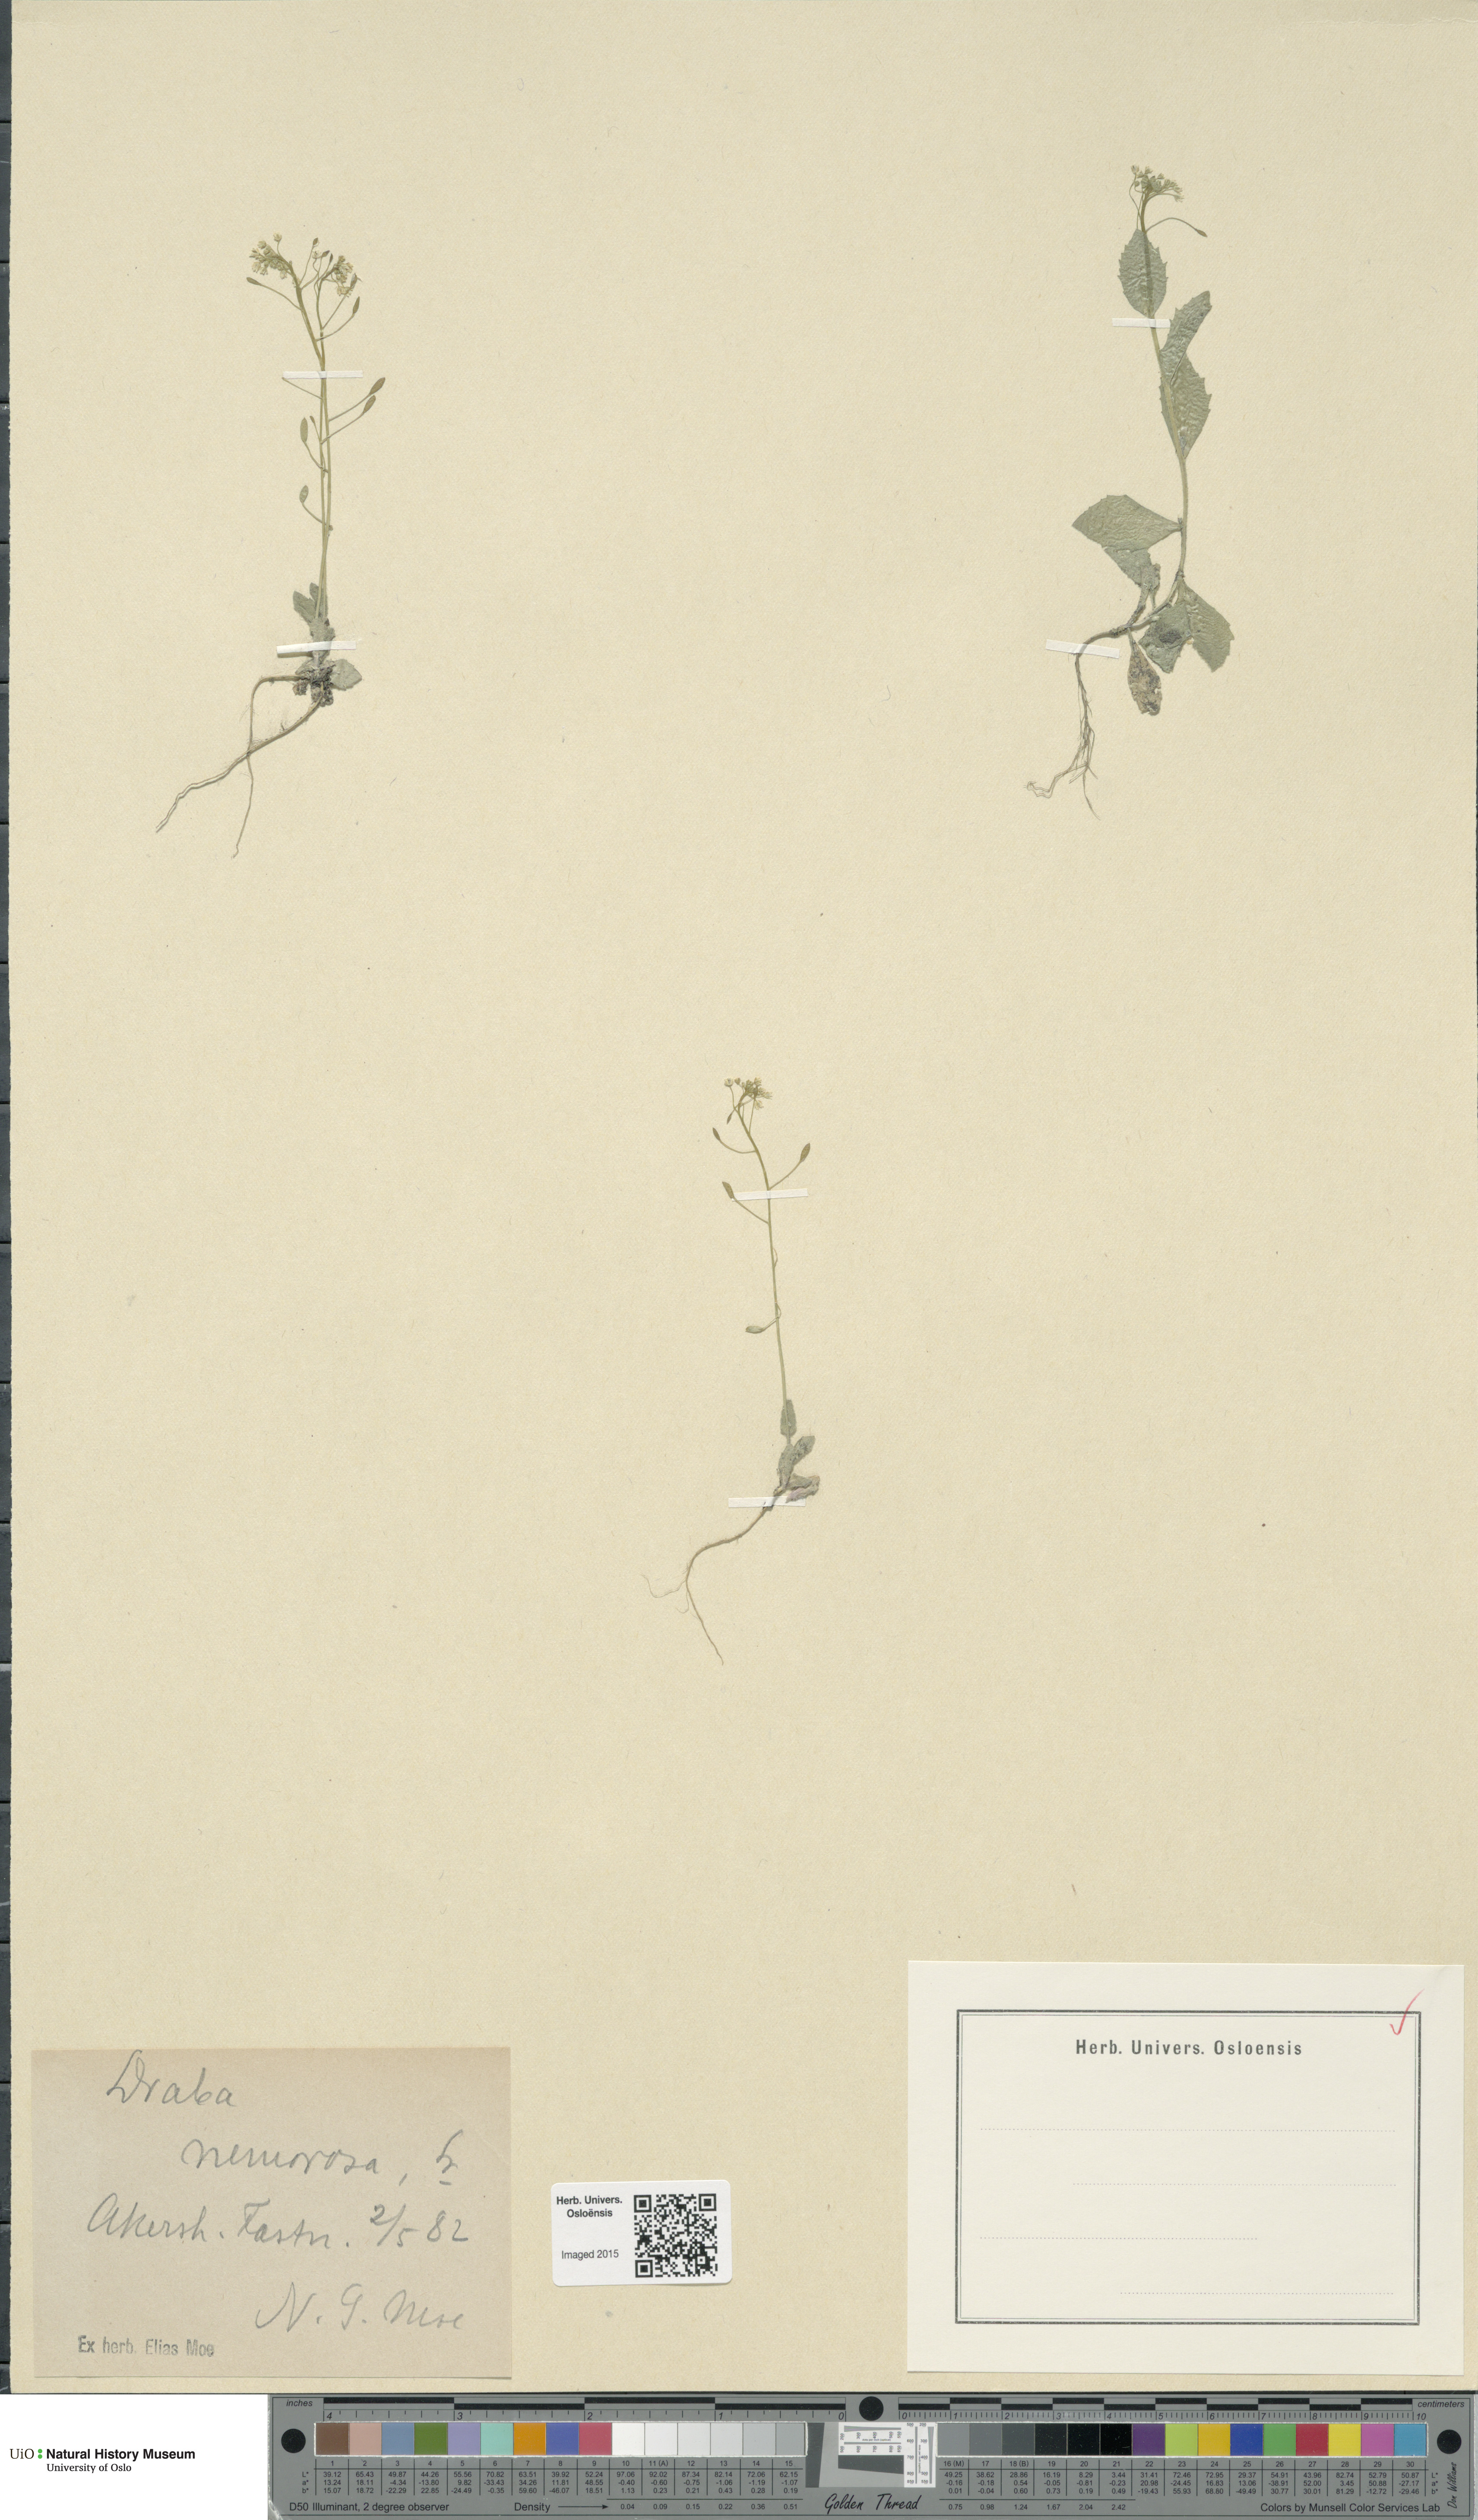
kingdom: Plantae
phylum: Tracheophyta
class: Magnoliopsida
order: Brassicales
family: Brassicaceae
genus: Draba
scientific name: Draba nemorosa
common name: Wood whitlow-grass
